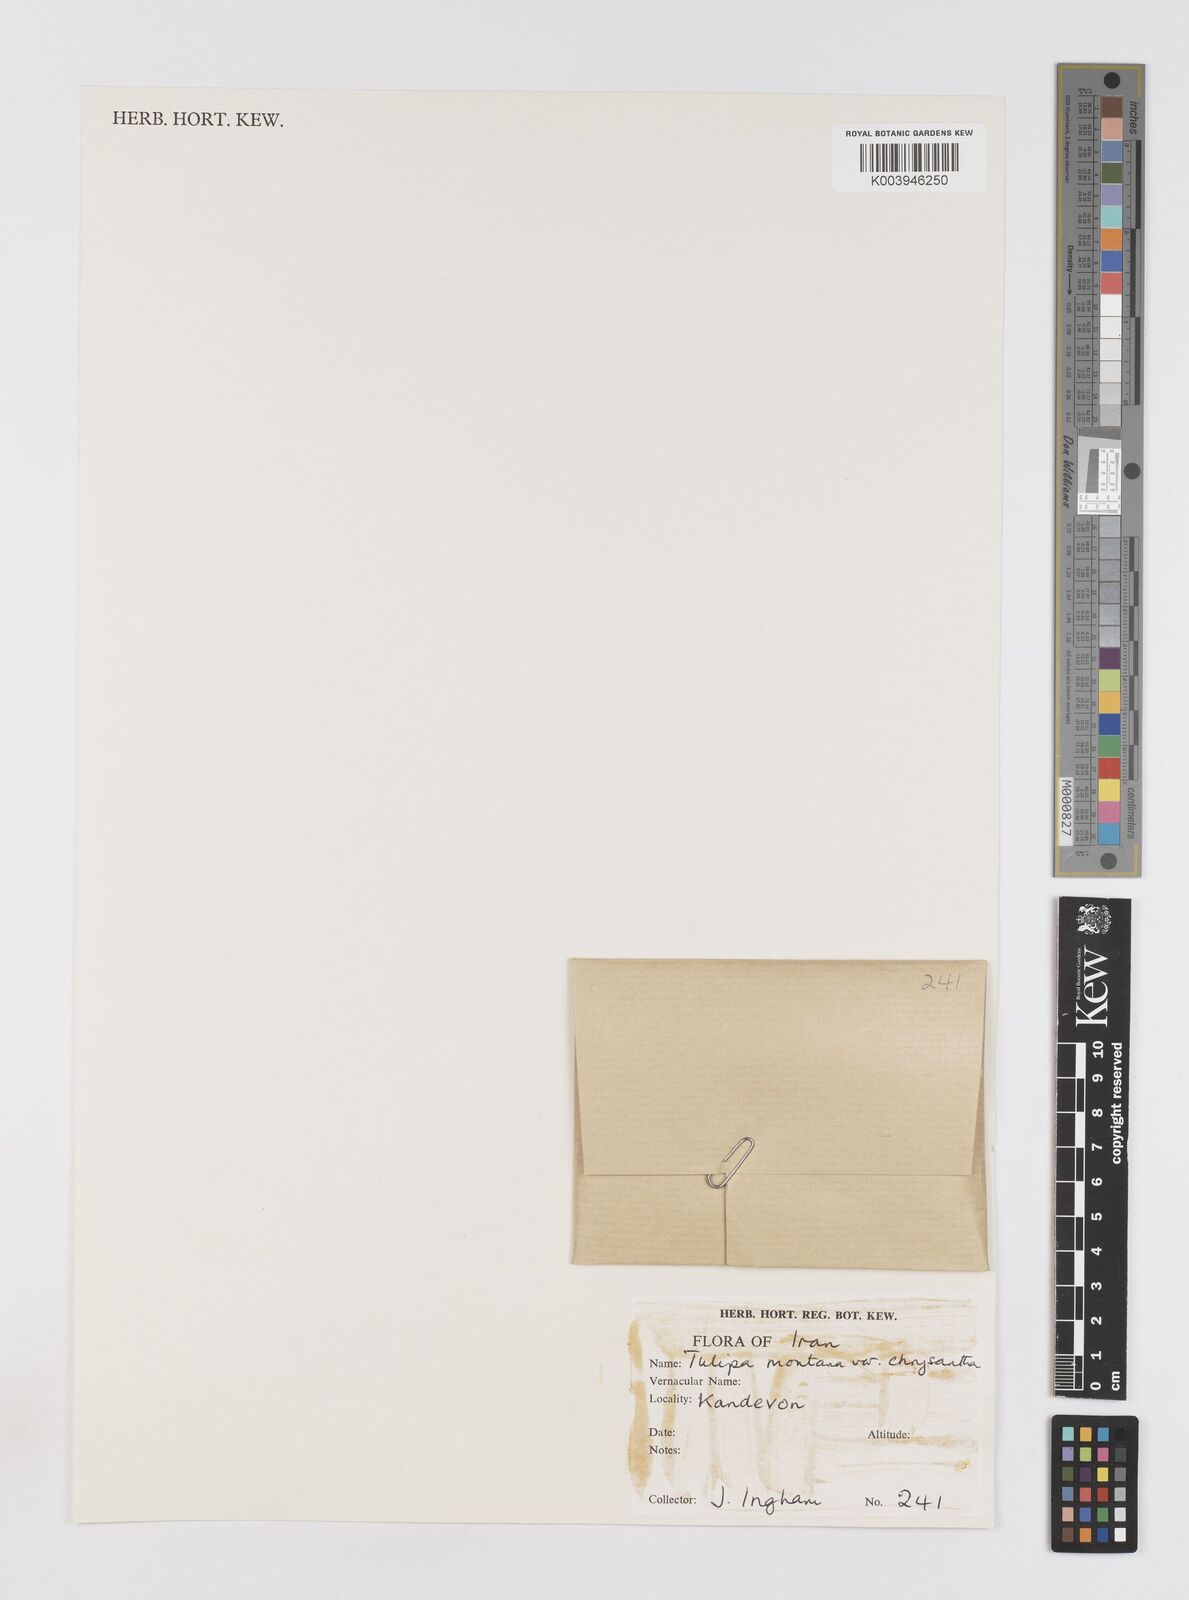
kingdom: Plantae
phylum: Tracheophyta
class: Liliopsida
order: Liliales
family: Liliaceae
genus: Tulipa
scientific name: Tulipa montana
